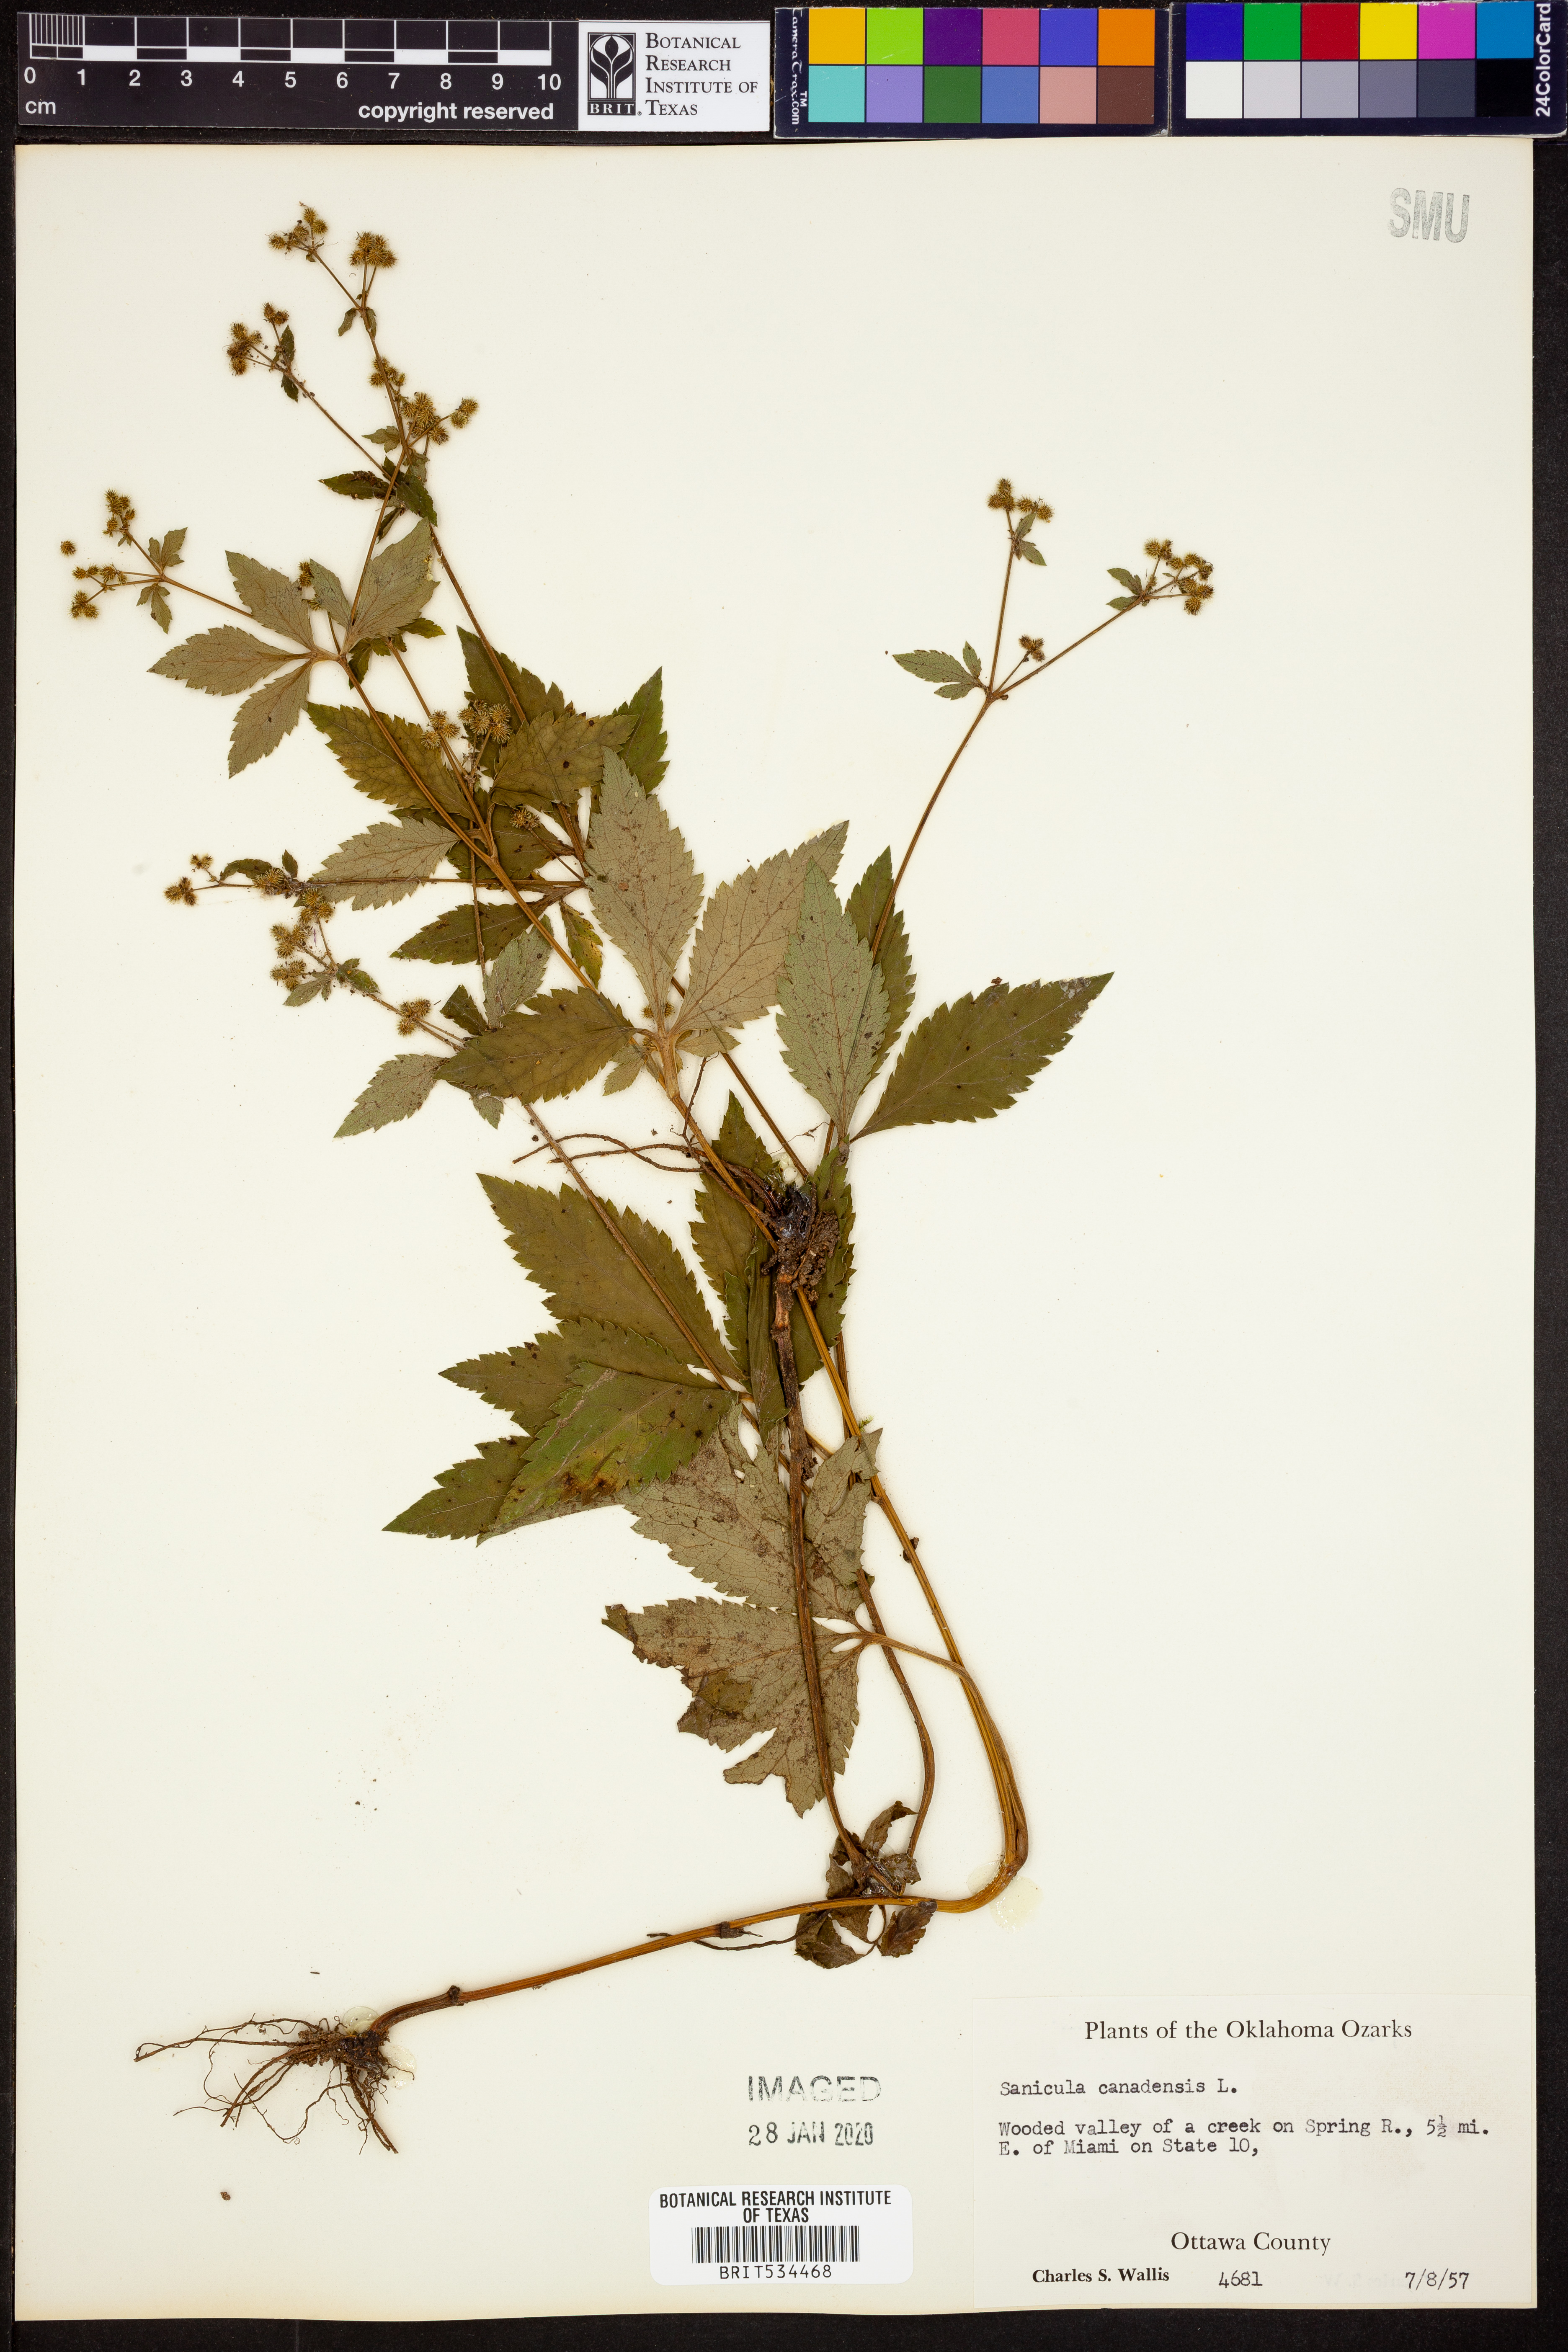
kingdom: Plantae
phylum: Tracheophyta
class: Magnoliopsida
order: Apiales
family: Apiaceae
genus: Sanicula
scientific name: Sanicula canadensis
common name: Canada sanicle
